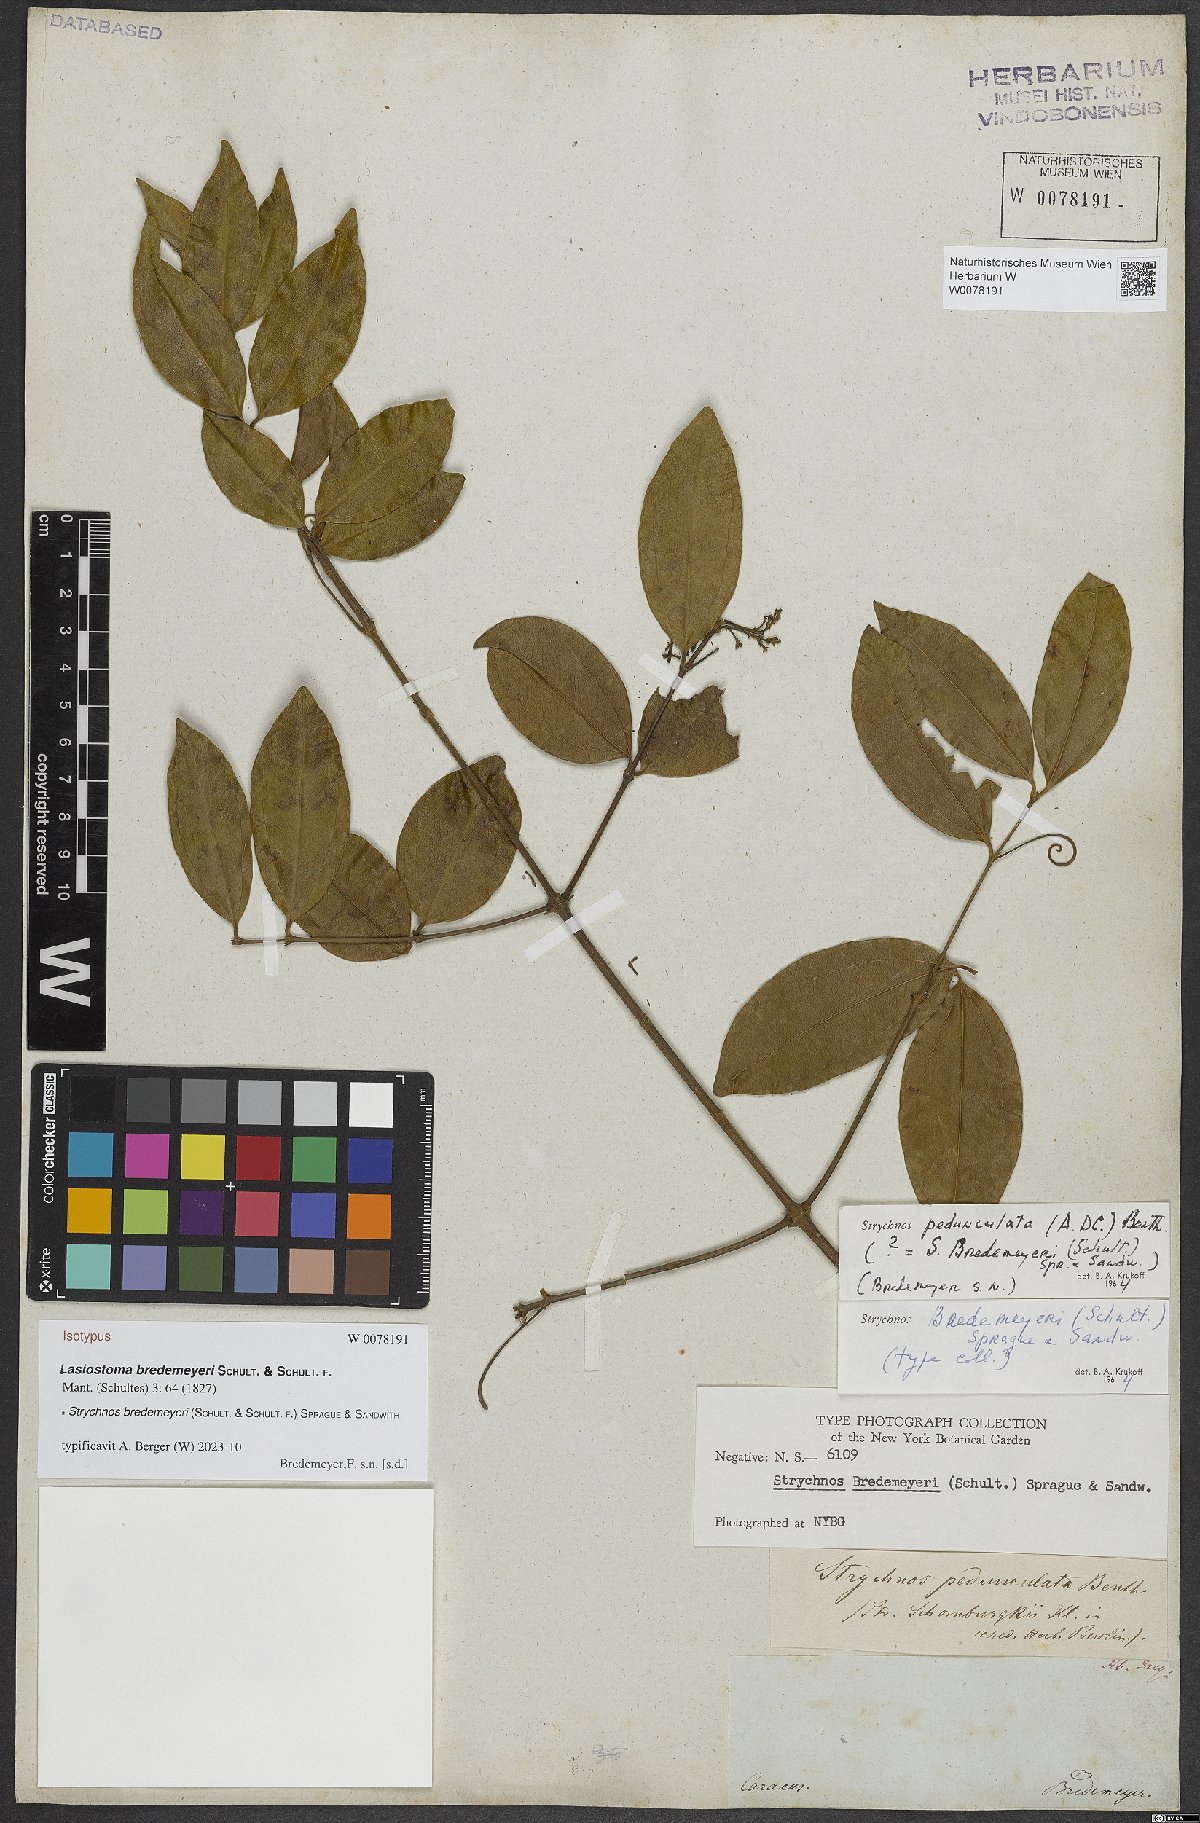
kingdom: Plantae
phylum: Tracheophyta
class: Magnoliopsida
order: Gentianales
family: Loganiaceae
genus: Strychnos
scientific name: Strychnos bredemeyeri
